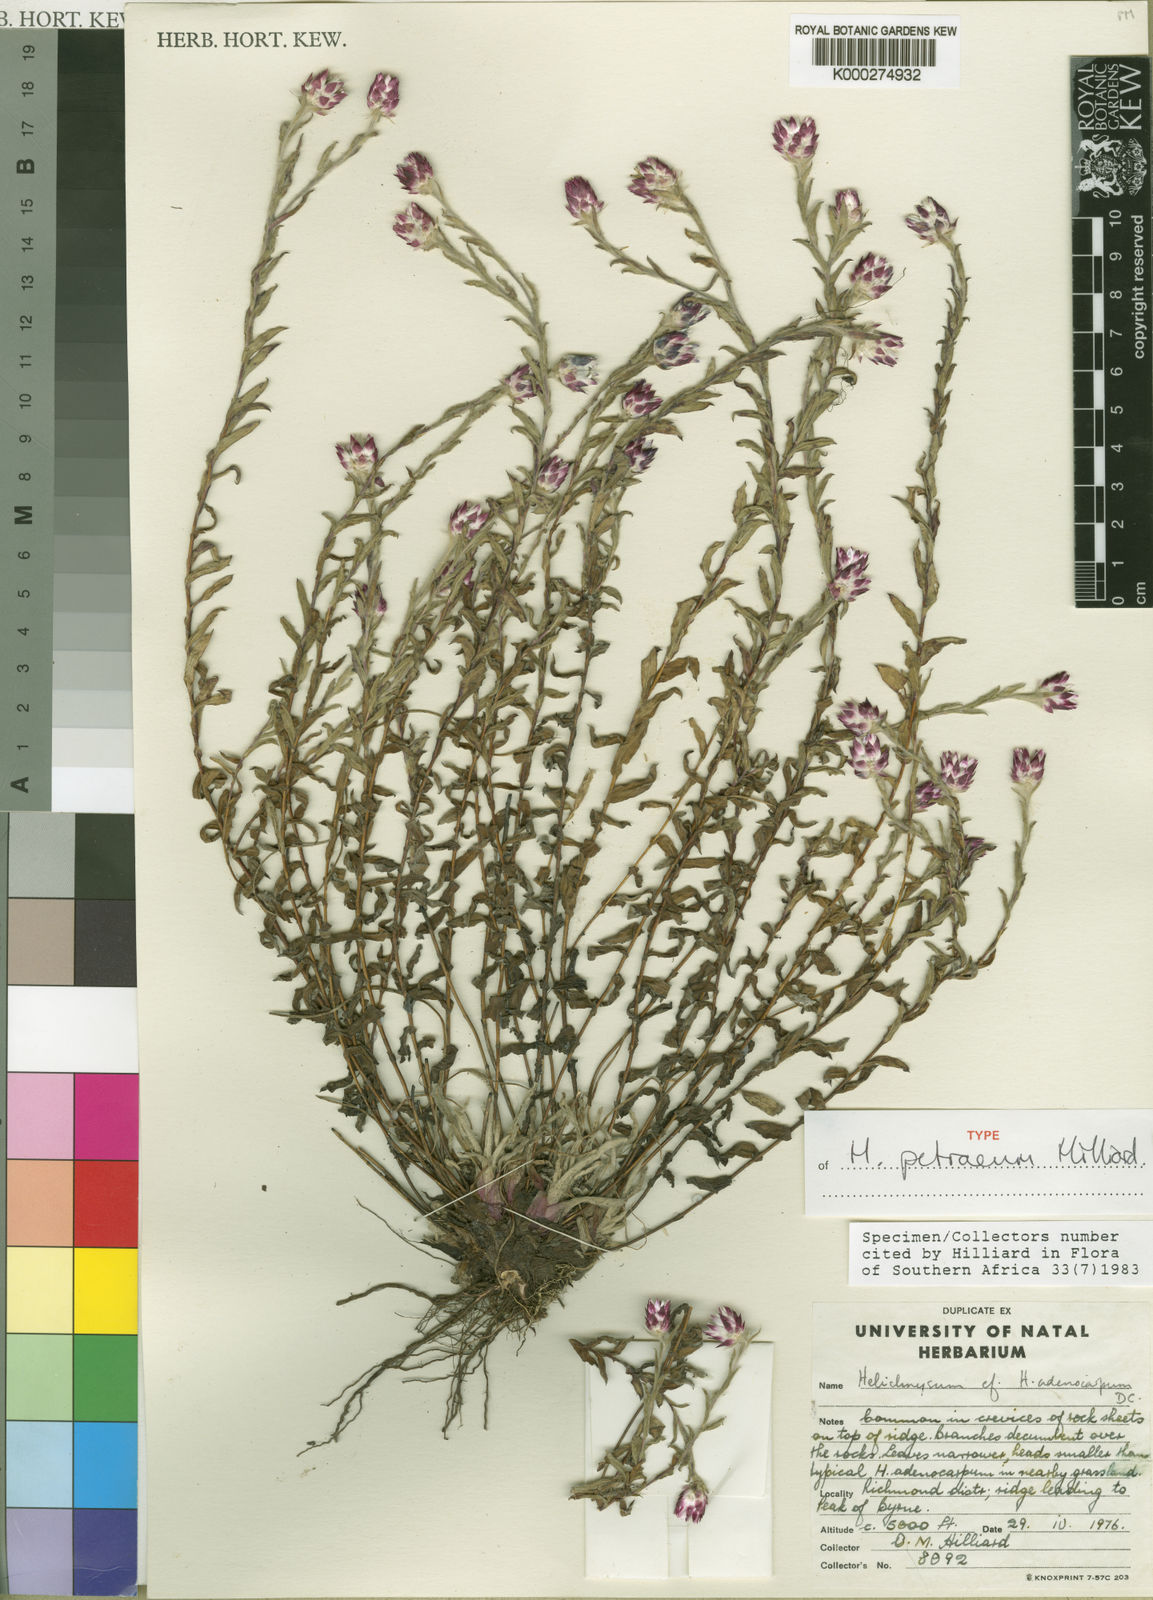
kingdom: Plantae
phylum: Tracheophyta
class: Magnoliopsida
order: Asterales
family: Asteraceae
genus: Helichrysum
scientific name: Helichrysum petraeum
